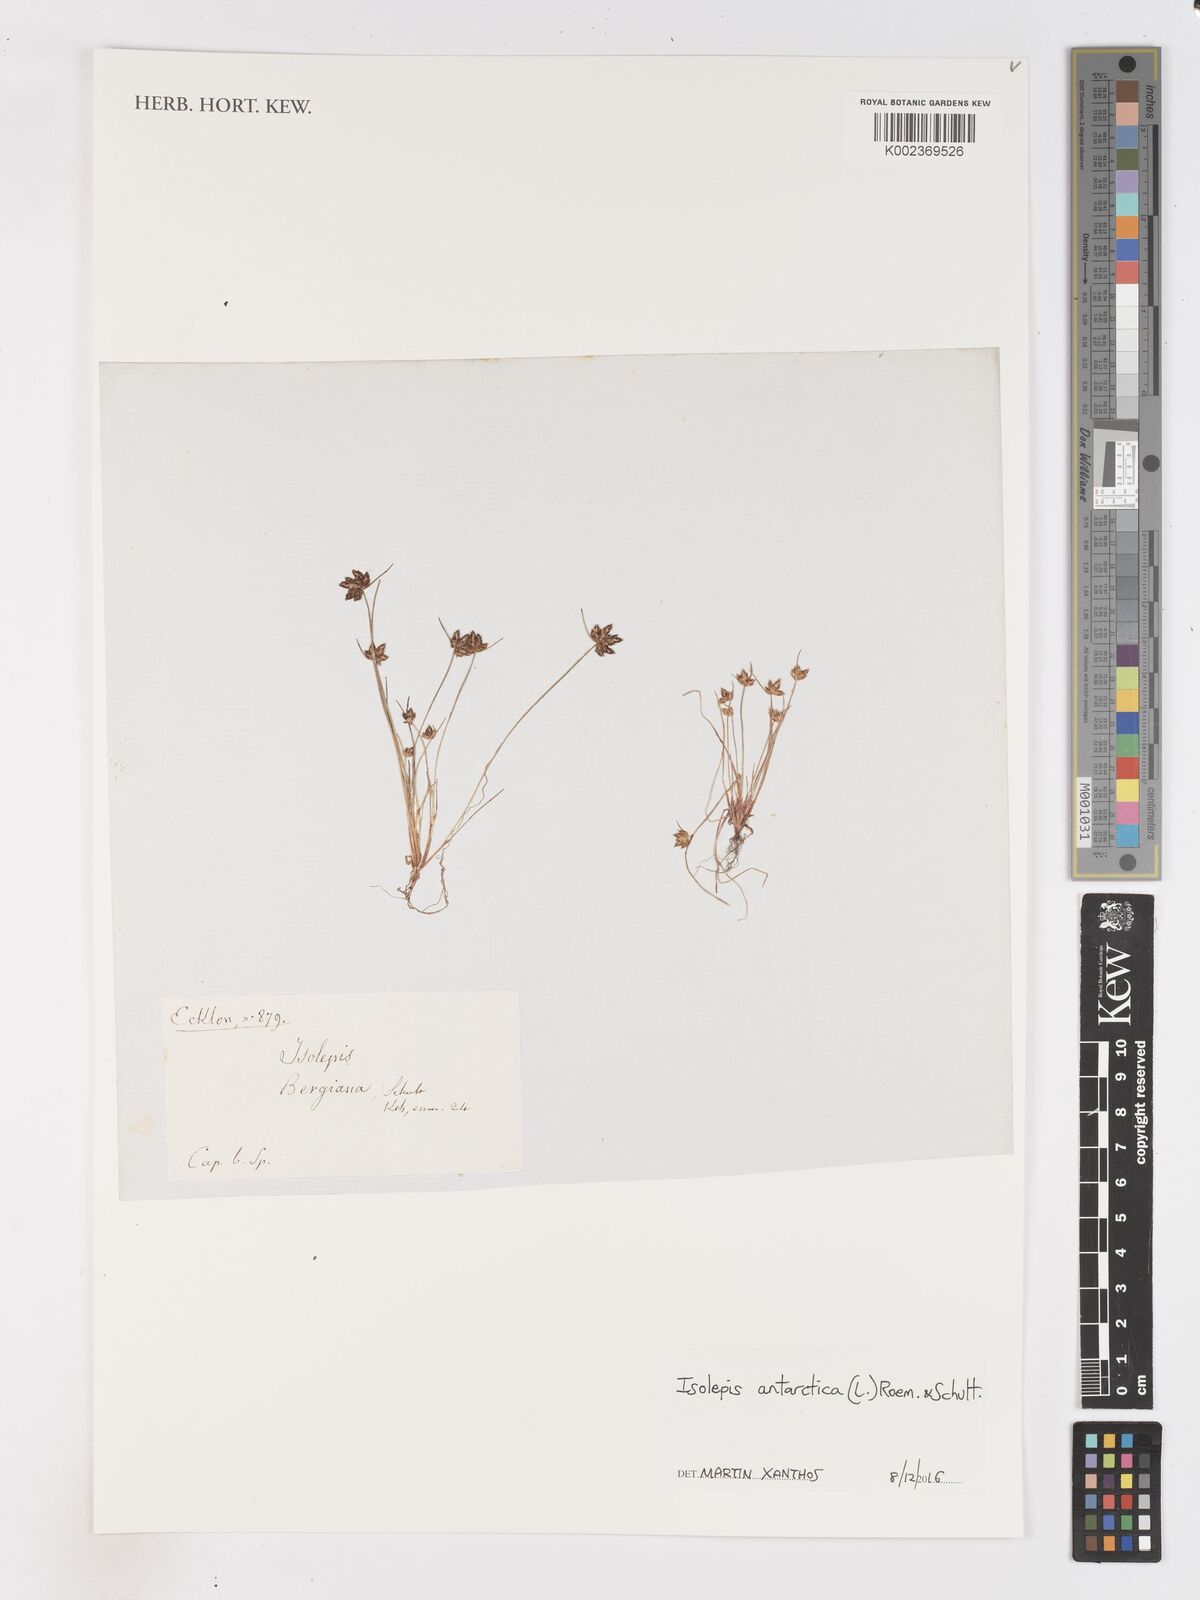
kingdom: Plantae
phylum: Tracheophyta
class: Liliopsida
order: Poales
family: Cyperaceae
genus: Isolepis
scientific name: Isolepis antarctica
